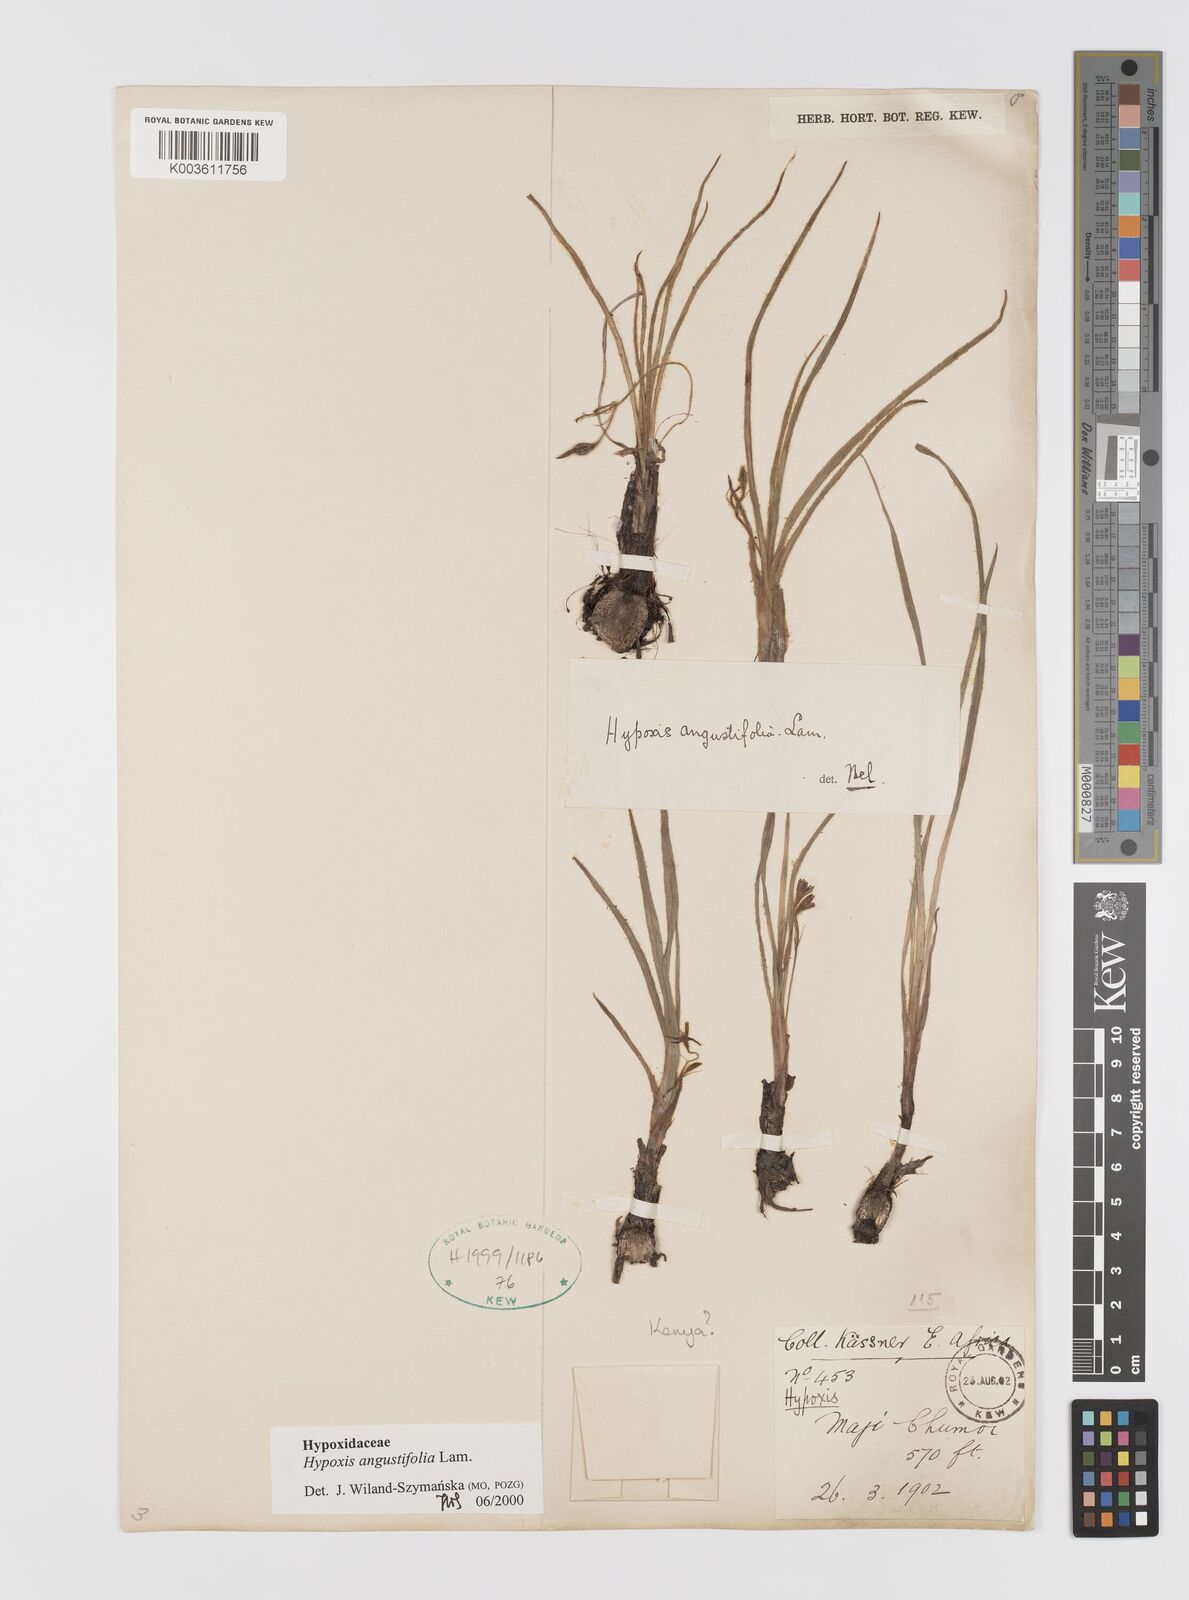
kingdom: Plantae
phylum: Tracheophyta
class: Liliopsida
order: Asparagales
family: Hypoxidaceae
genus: Hypoxis
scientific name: Hypoxis angustifolia
